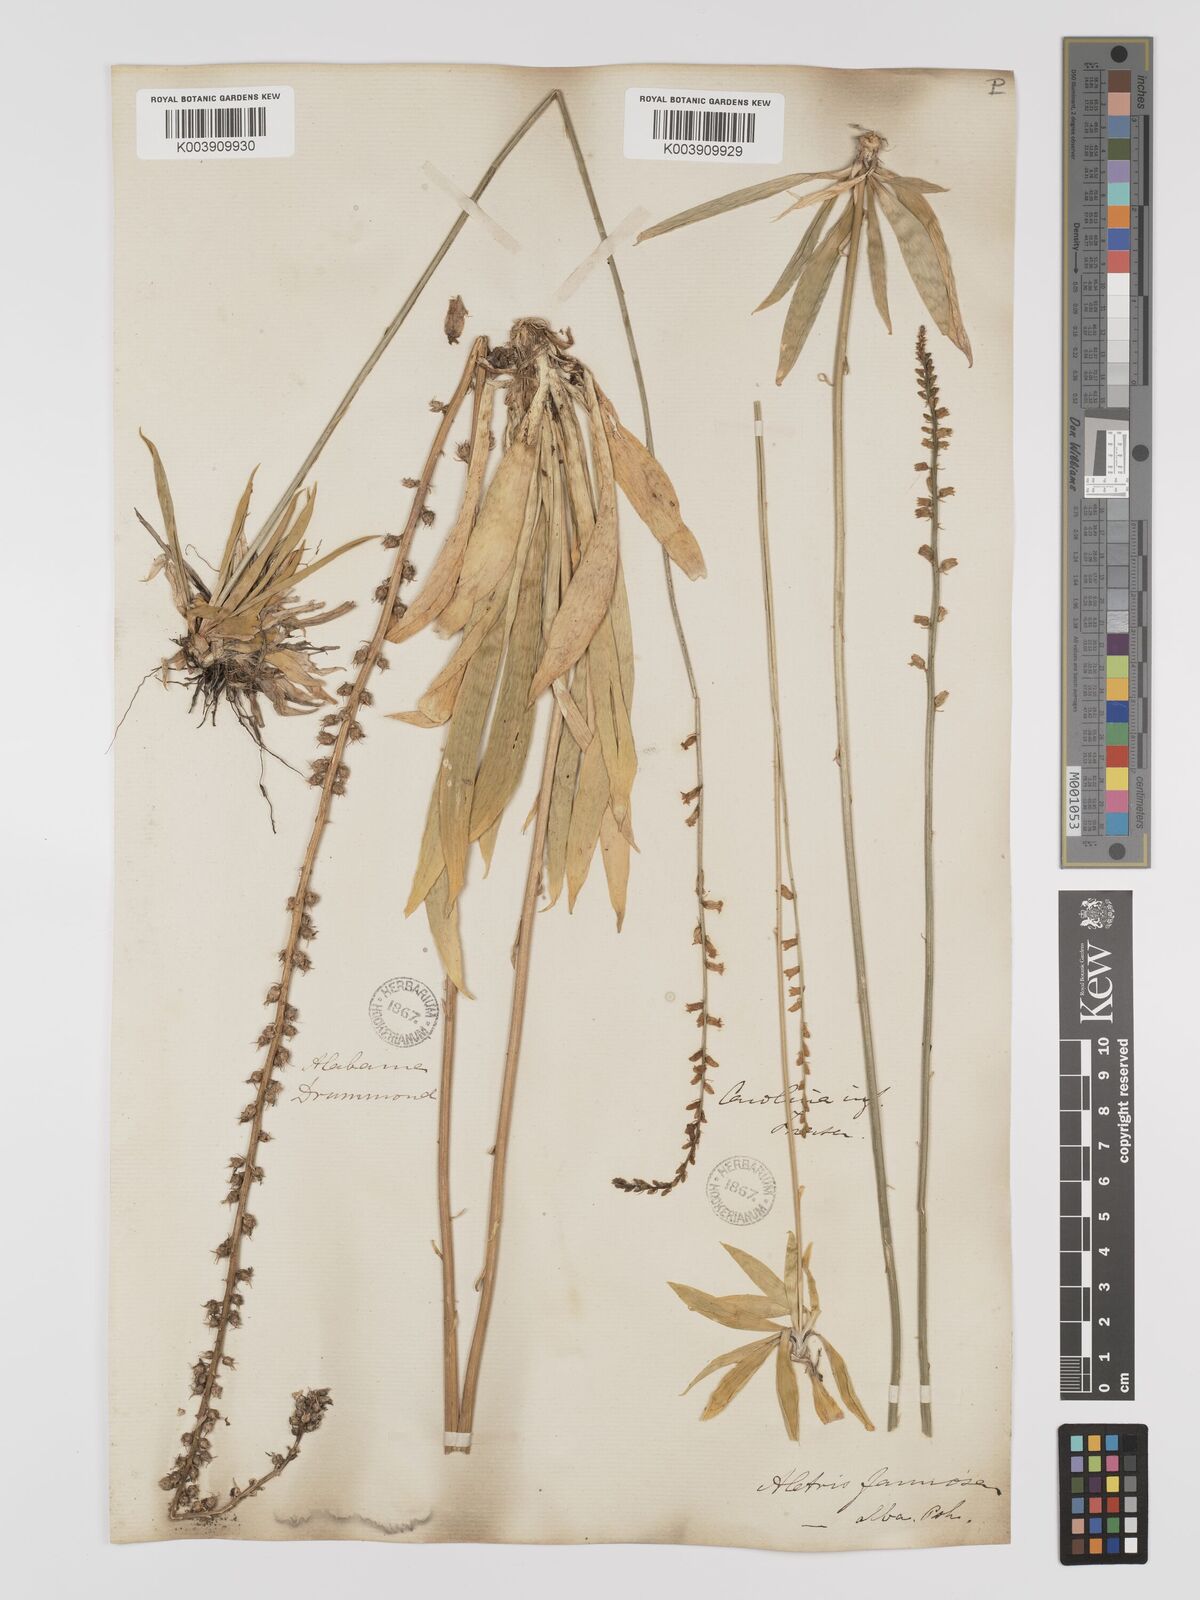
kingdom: Plantae
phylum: Tracheophyta
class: Liliopsida
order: Dioscoreales
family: Nartheciaceae
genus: Aletris
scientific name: Aletris farinosa
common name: Colicroot
